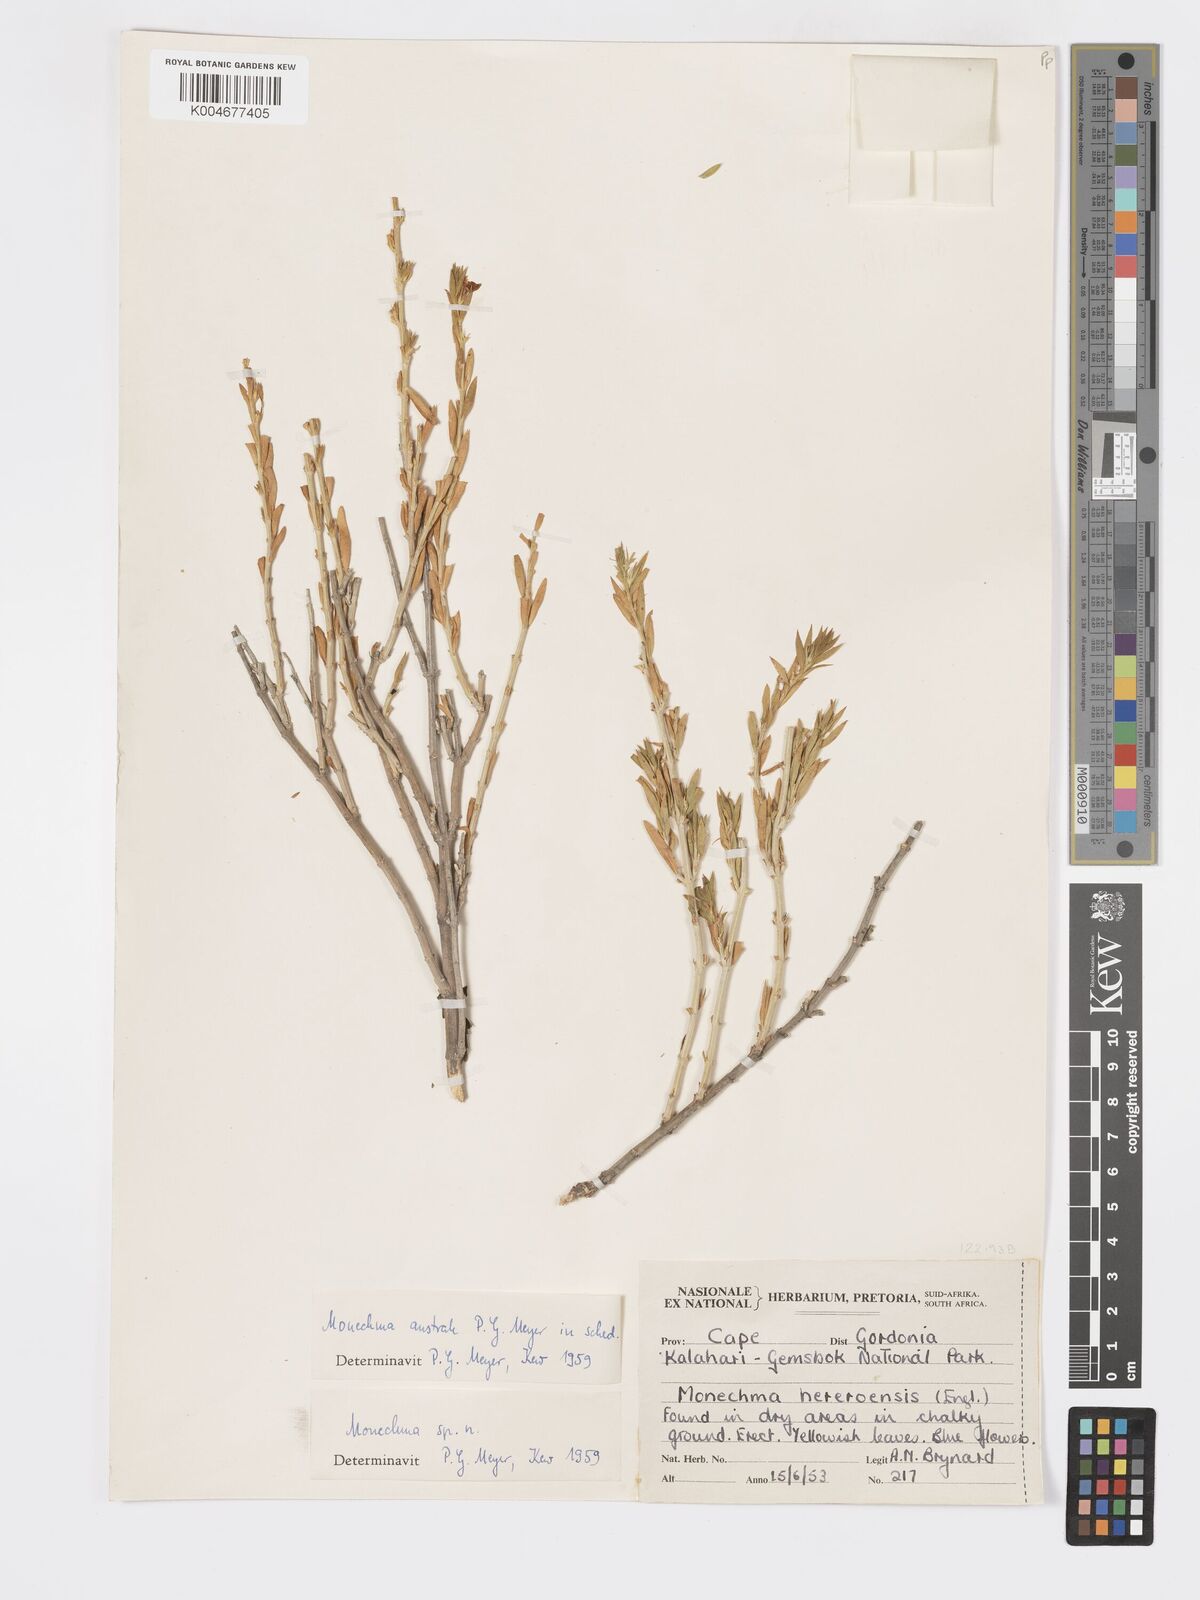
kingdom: Plantae
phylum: Tracheophyta
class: Magnoliopsida
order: Lamiales
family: Acanthaceae
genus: Pogonospermum
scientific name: Pogonospermum
